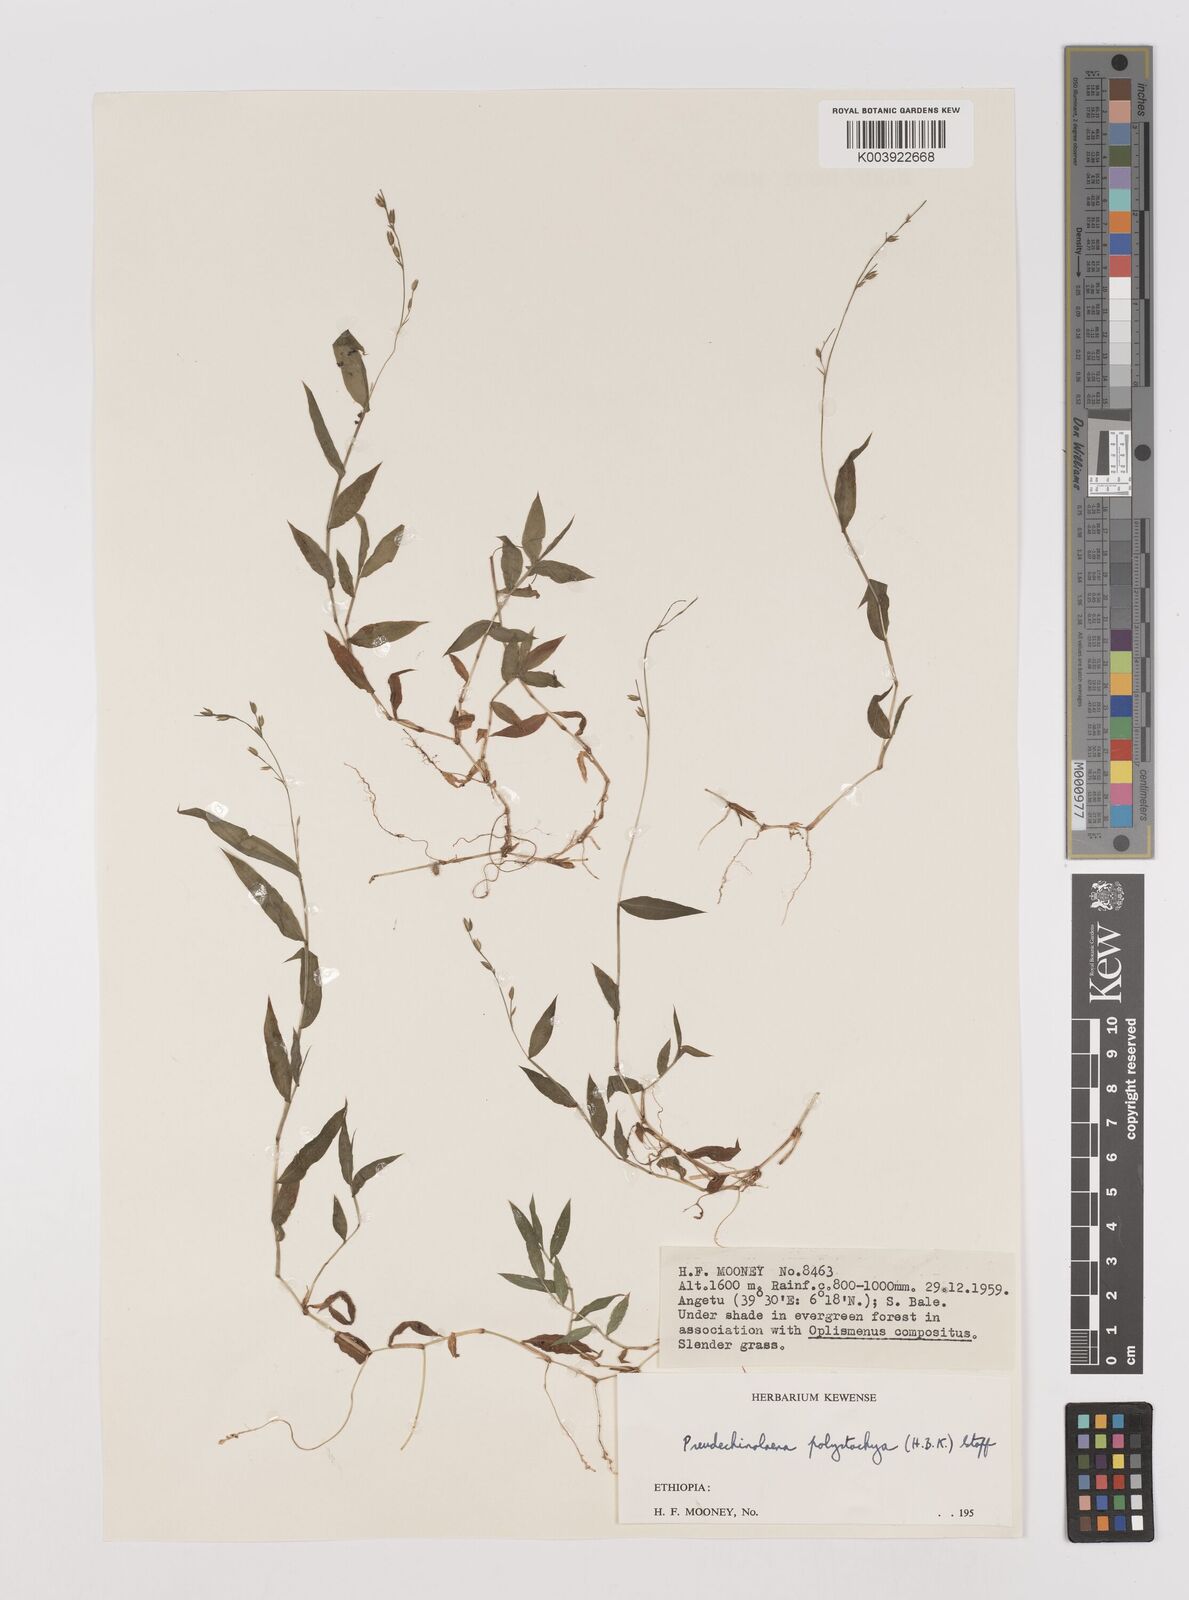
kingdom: Plantae
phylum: Tracheophyta
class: Liliopsida
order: Poales
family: Poaceae
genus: Pseudechinolaena
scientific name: Pseudechinolaena polystachya
